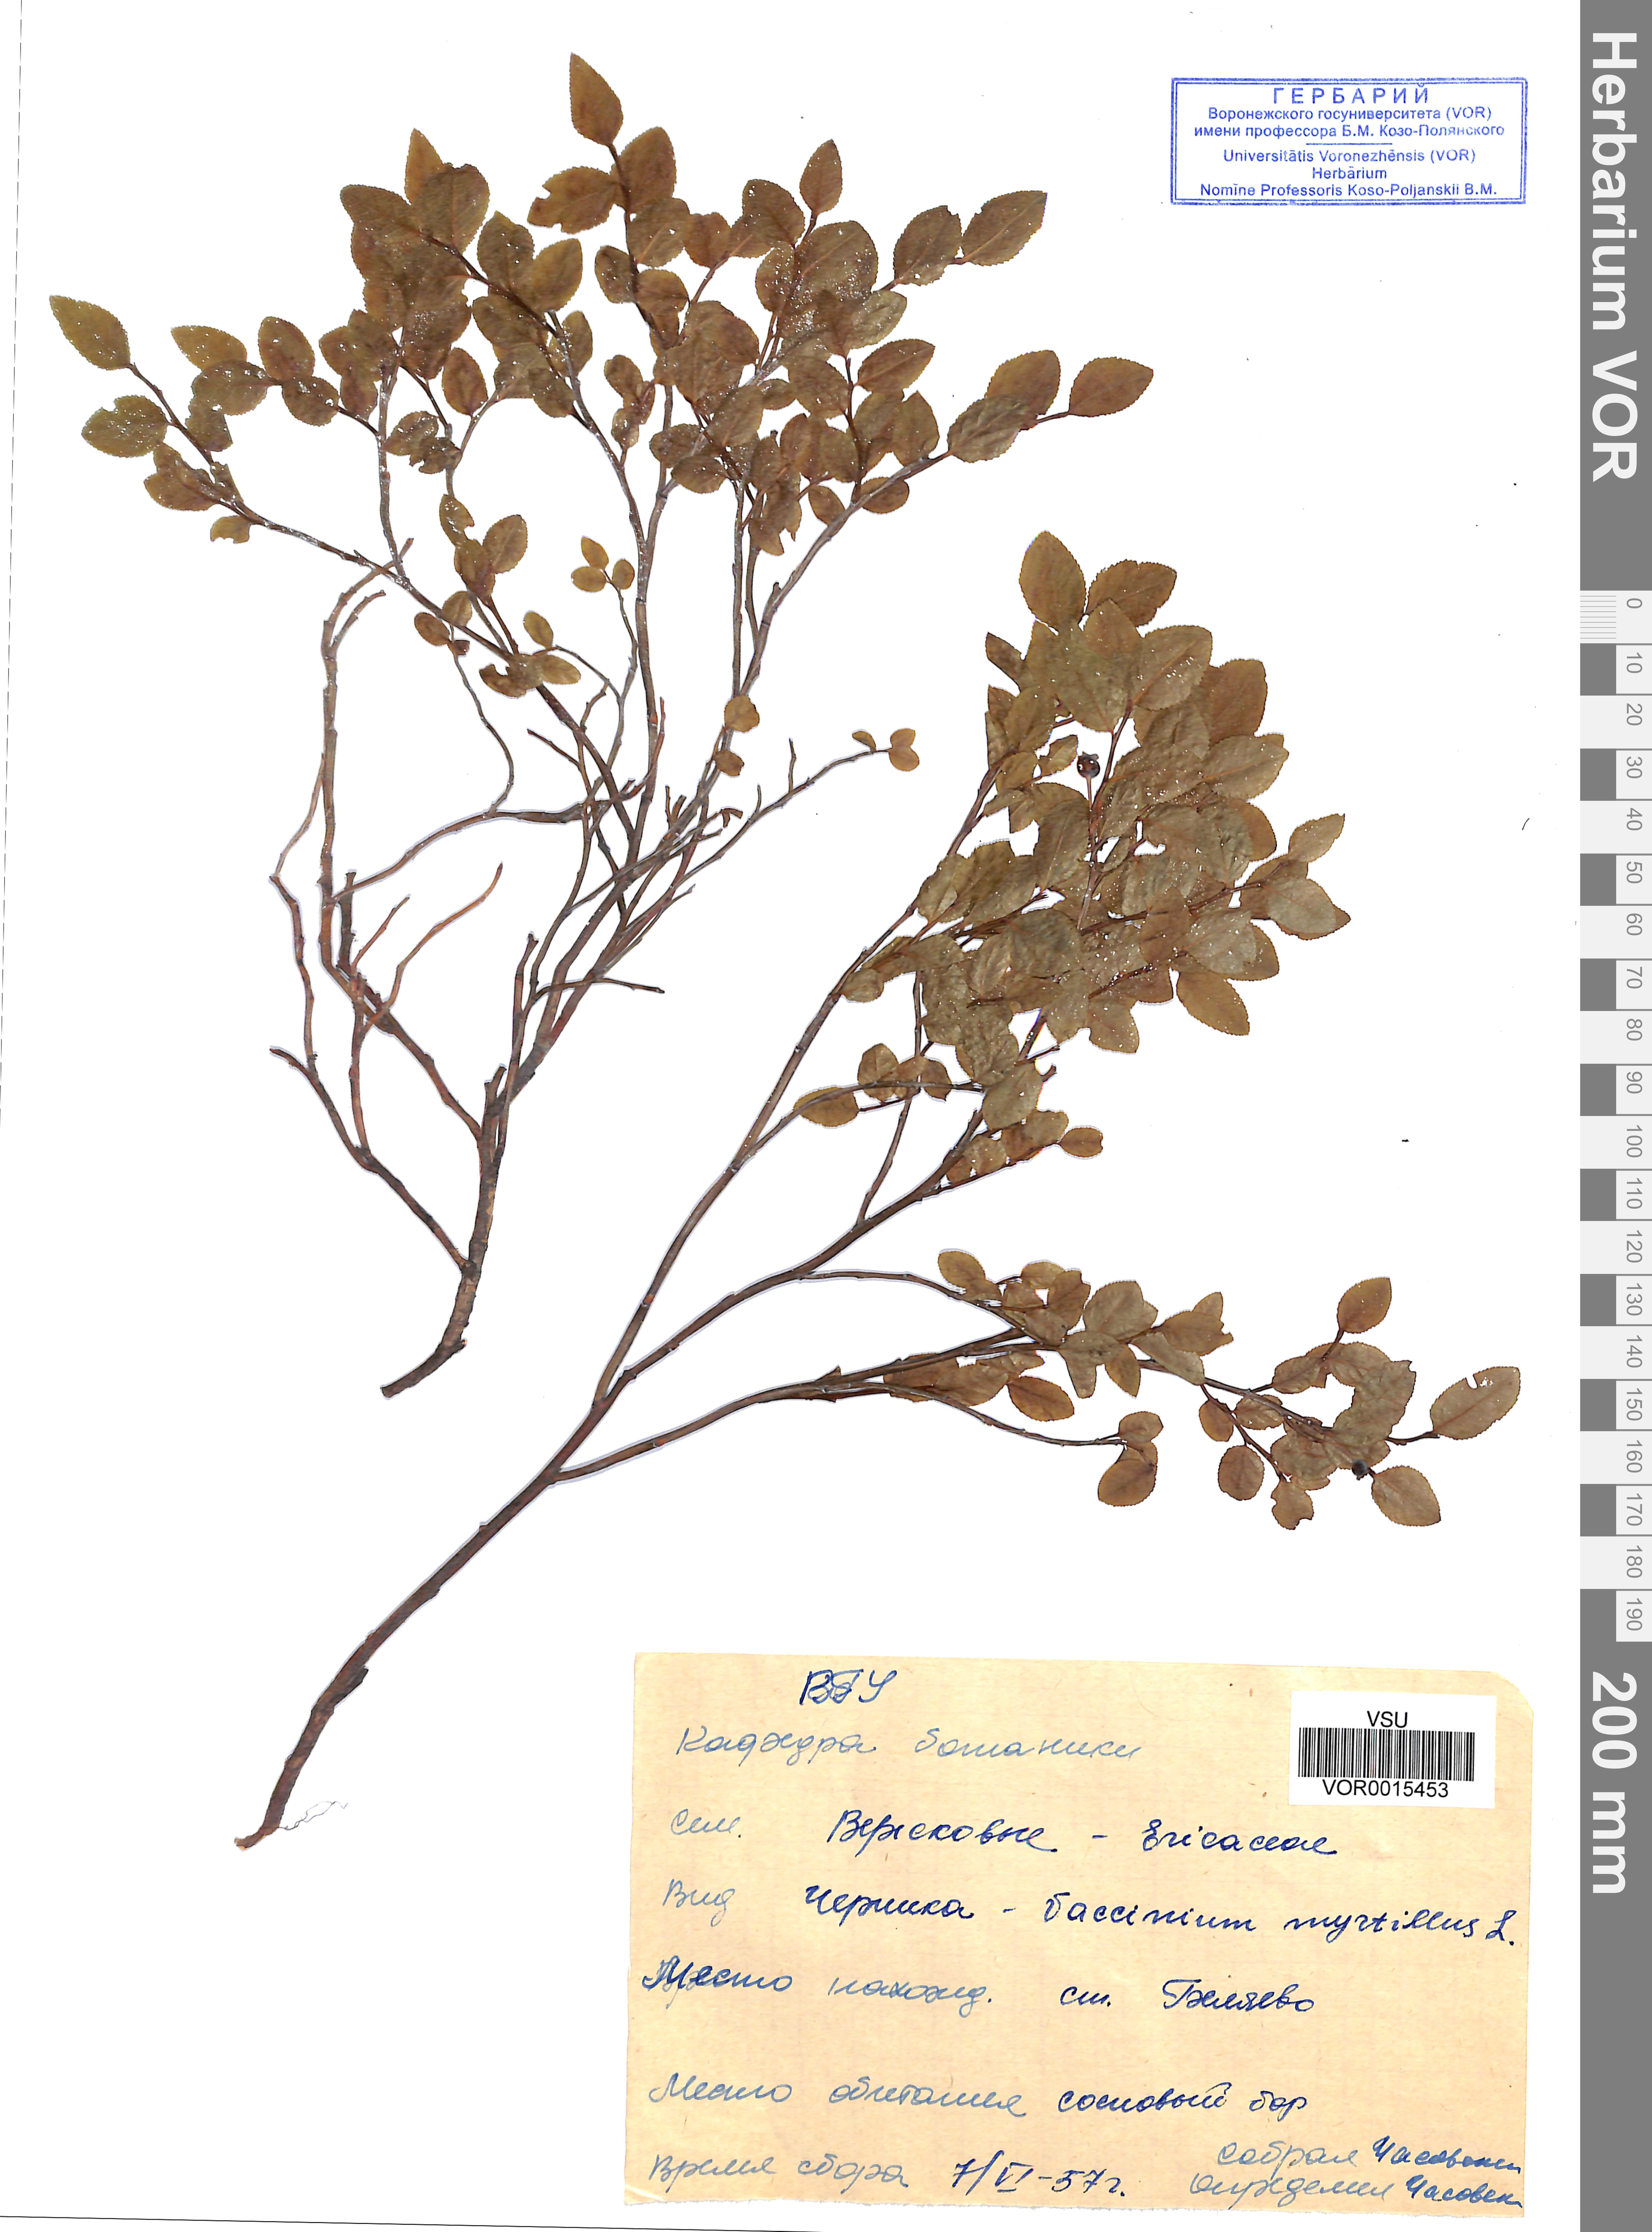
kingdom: Plantae
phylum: Tracheophyta
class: Magnoliopsida
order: Ericales
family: Ericaceae
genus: Vaccinium
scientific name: Vaccinium myrtillus
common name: Bilberry
